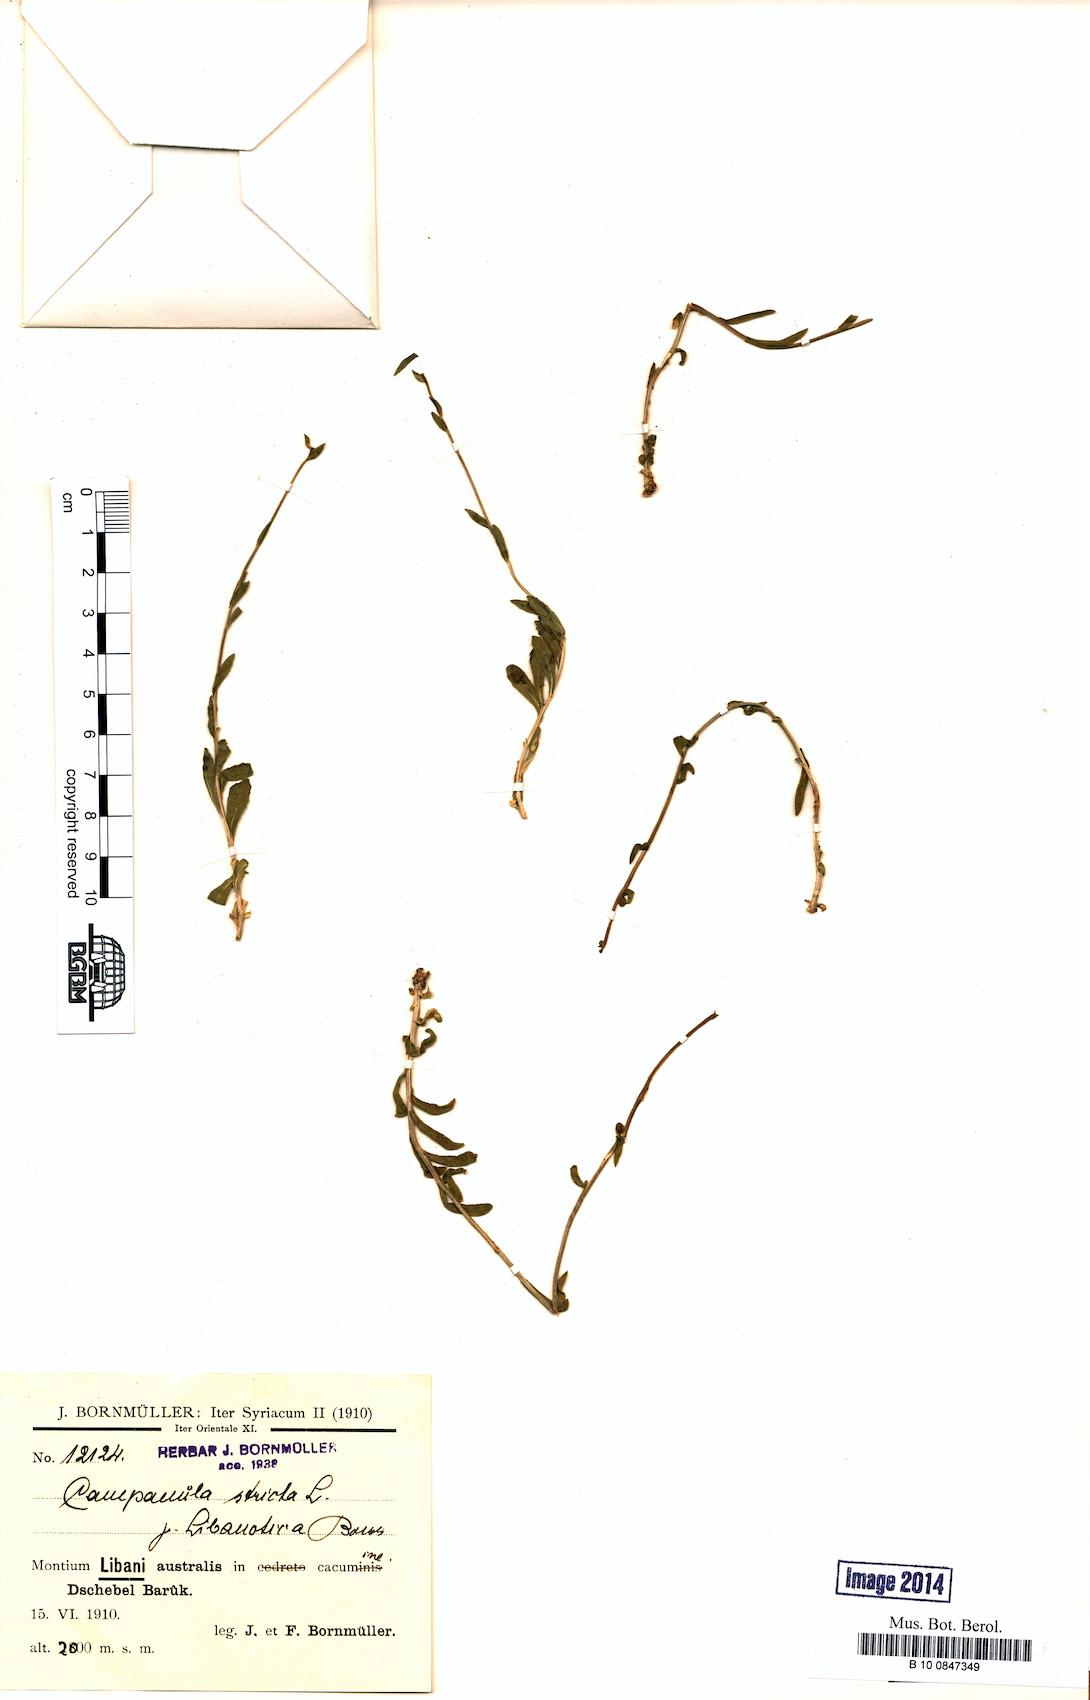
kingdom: Plantae
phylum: Tracheophyta
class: Magnoliopsida
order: Asterales
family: Campanulaceae
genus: Campanula
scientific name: Campanula stricta
